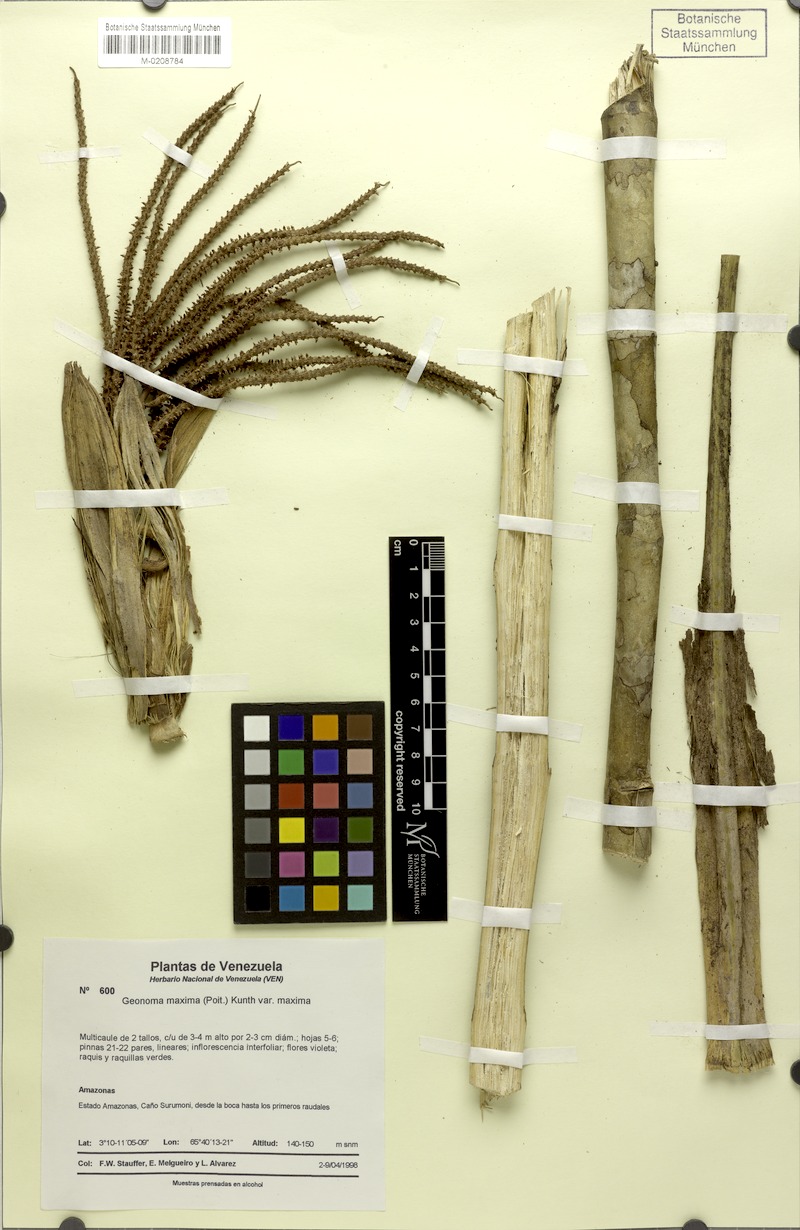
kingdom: Plantae
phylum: Tracheophyta
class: Liliopsida
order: Arecales
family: Arecaceae
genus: Geonoma
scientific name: Geonoma maxima
